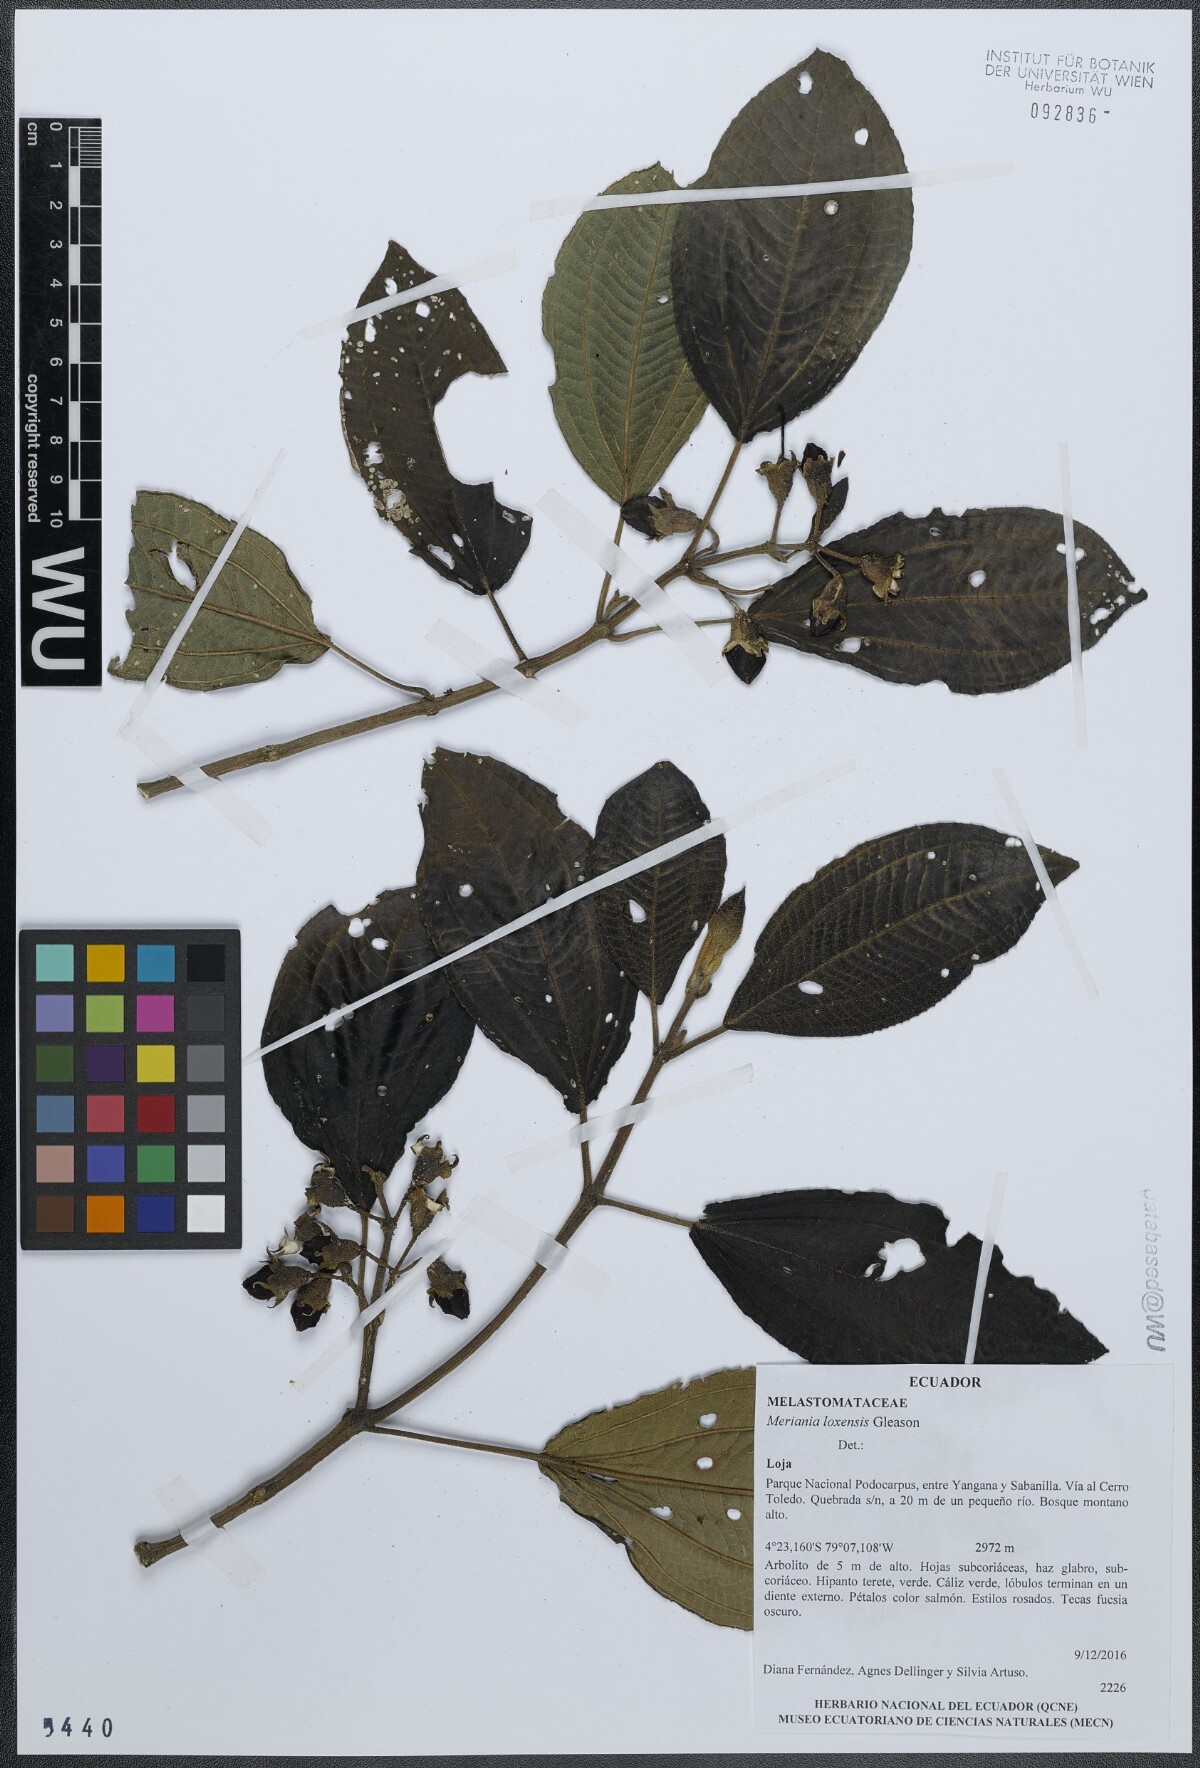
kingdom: Plantae
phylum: Tracheophyta
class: Magnoliopsida
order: Myrtales
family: Melastomataceae
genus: Meriania
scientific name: Meriania loxensis
